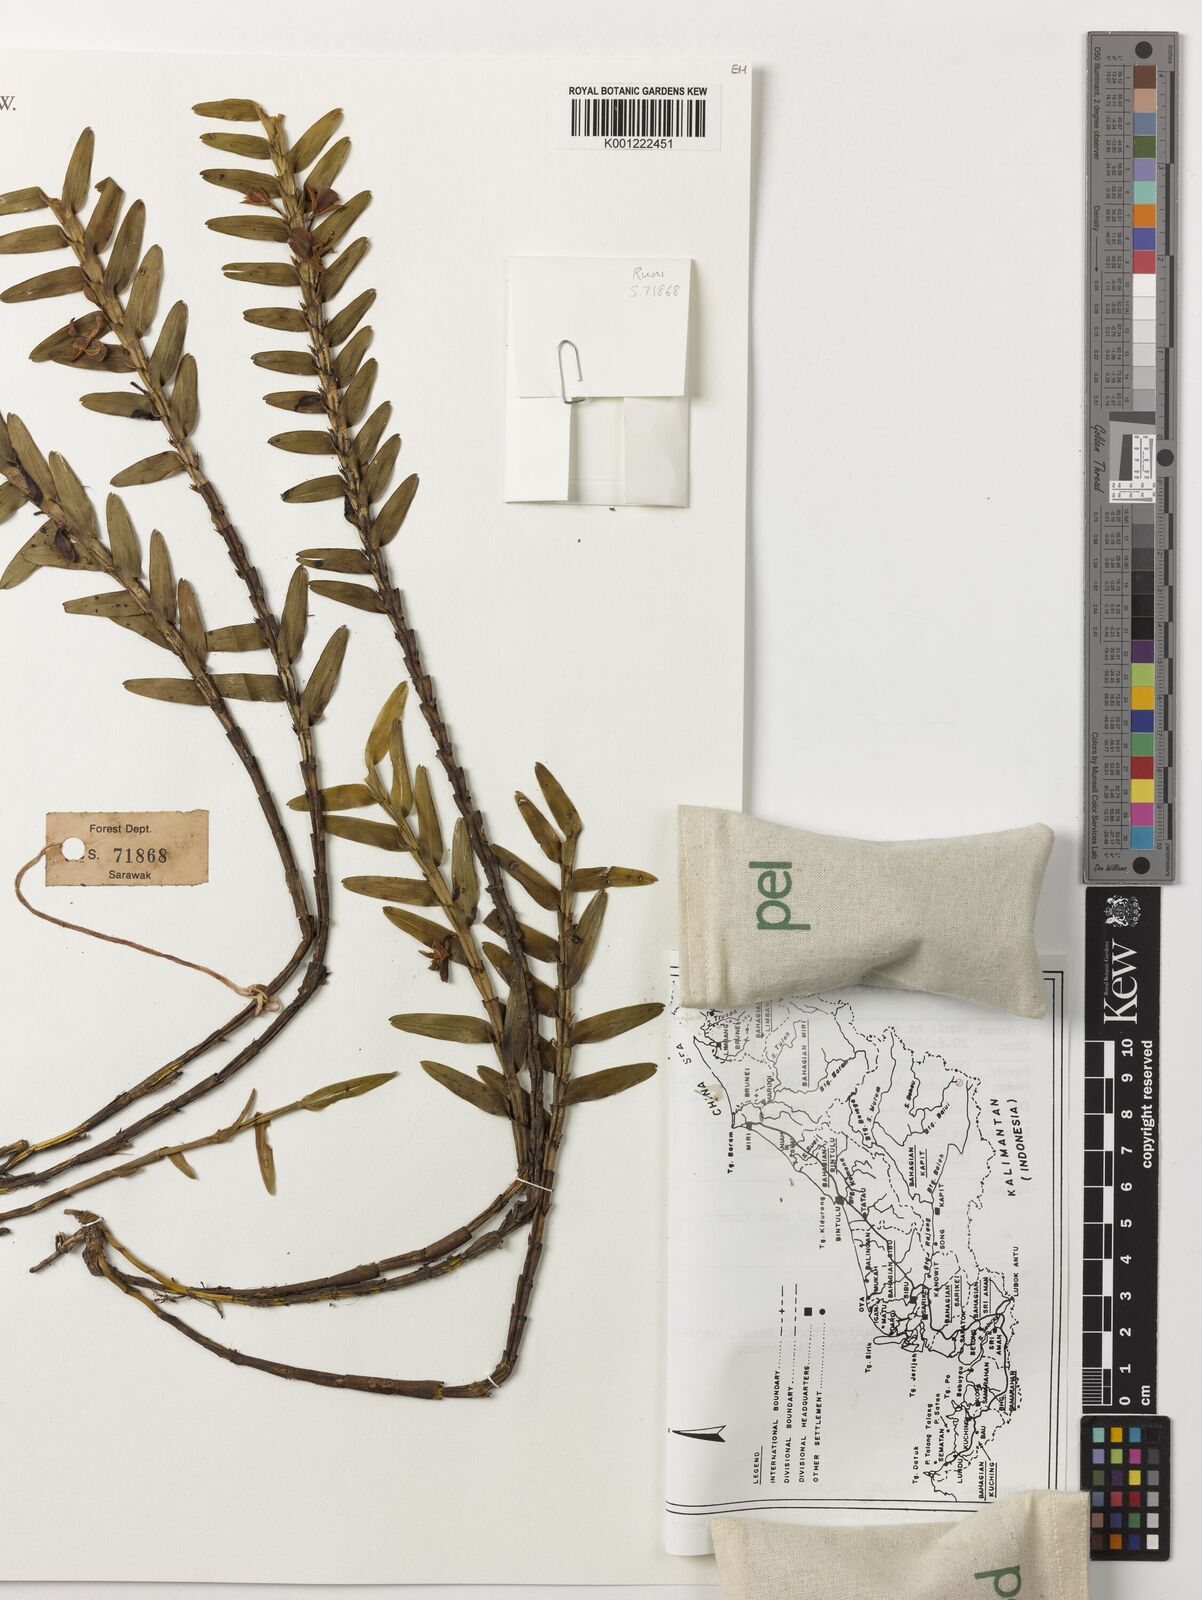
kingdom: Plantae
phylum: Tracheophyta
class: Liliopsida
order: Asparagales
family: Orchidaceae
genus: Dendrobium
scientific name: Dendrobium connatum
